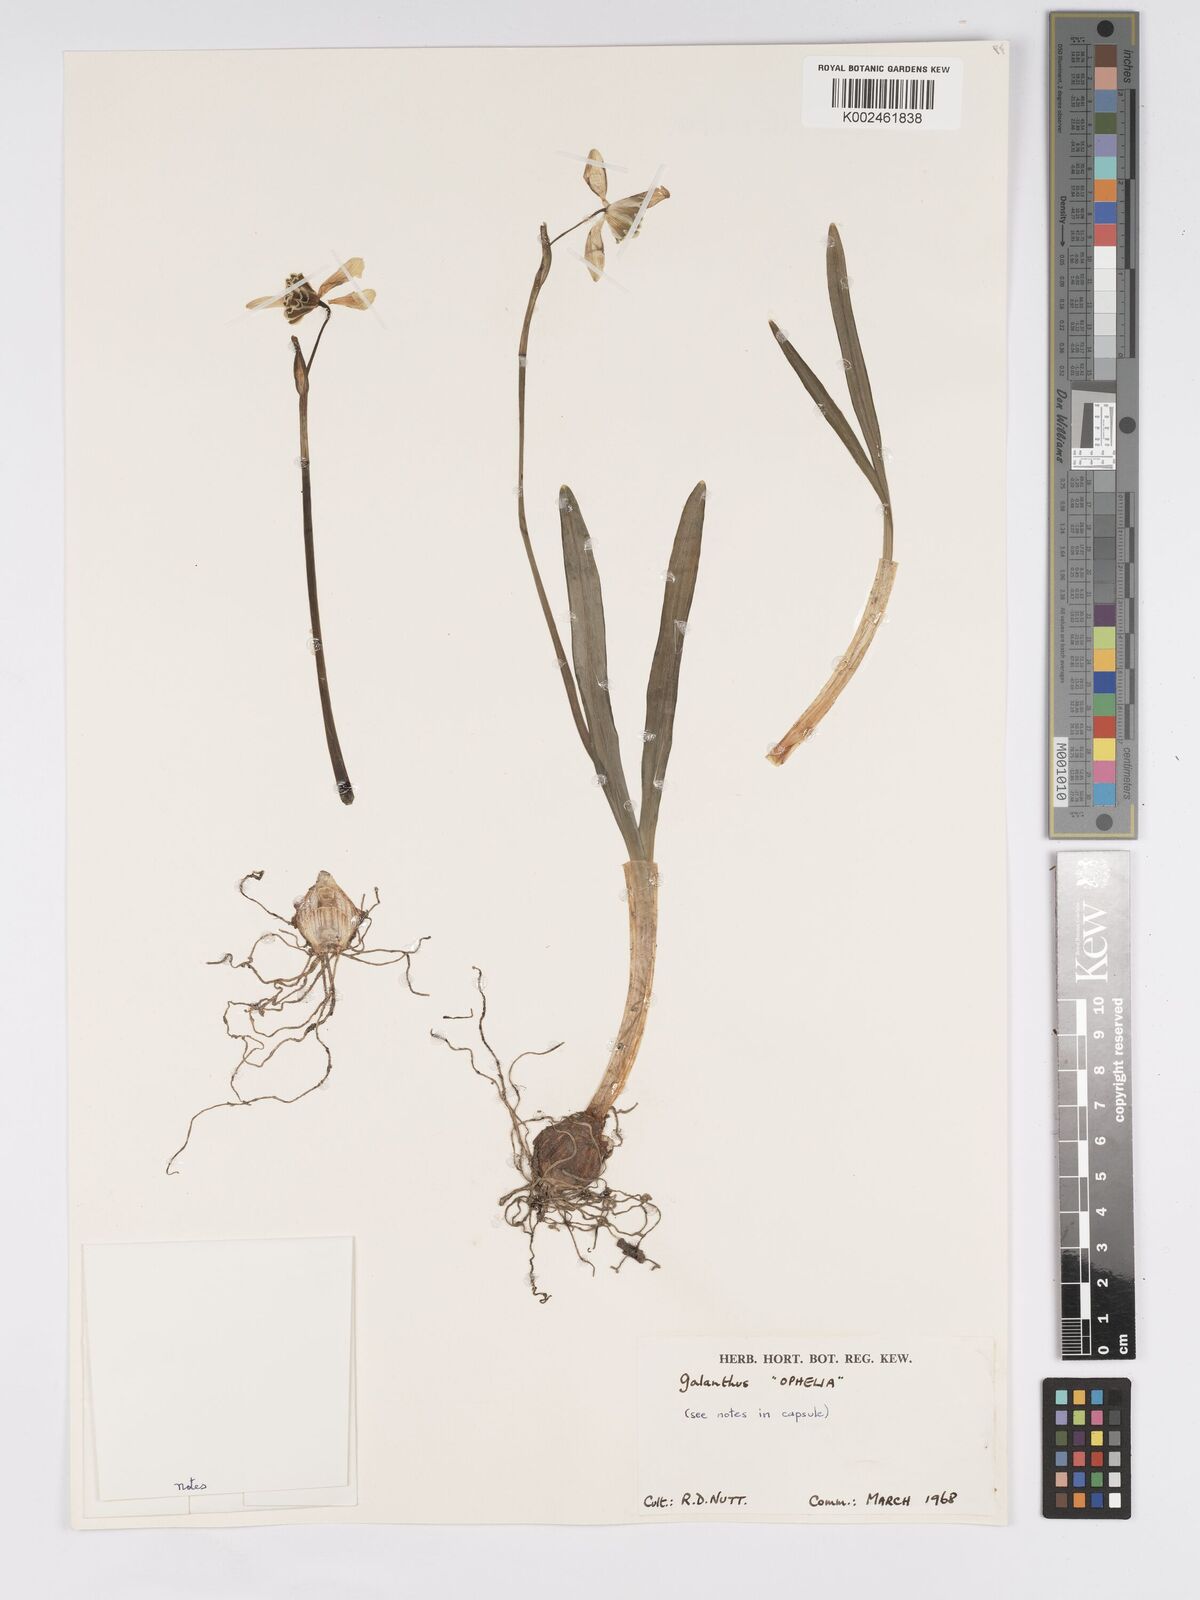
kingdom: Plantae
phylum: Tracheophyta
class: Liliopsida
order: Asparagales
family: Amaryllidaceae
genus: Galanthus
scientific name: Galanthus
